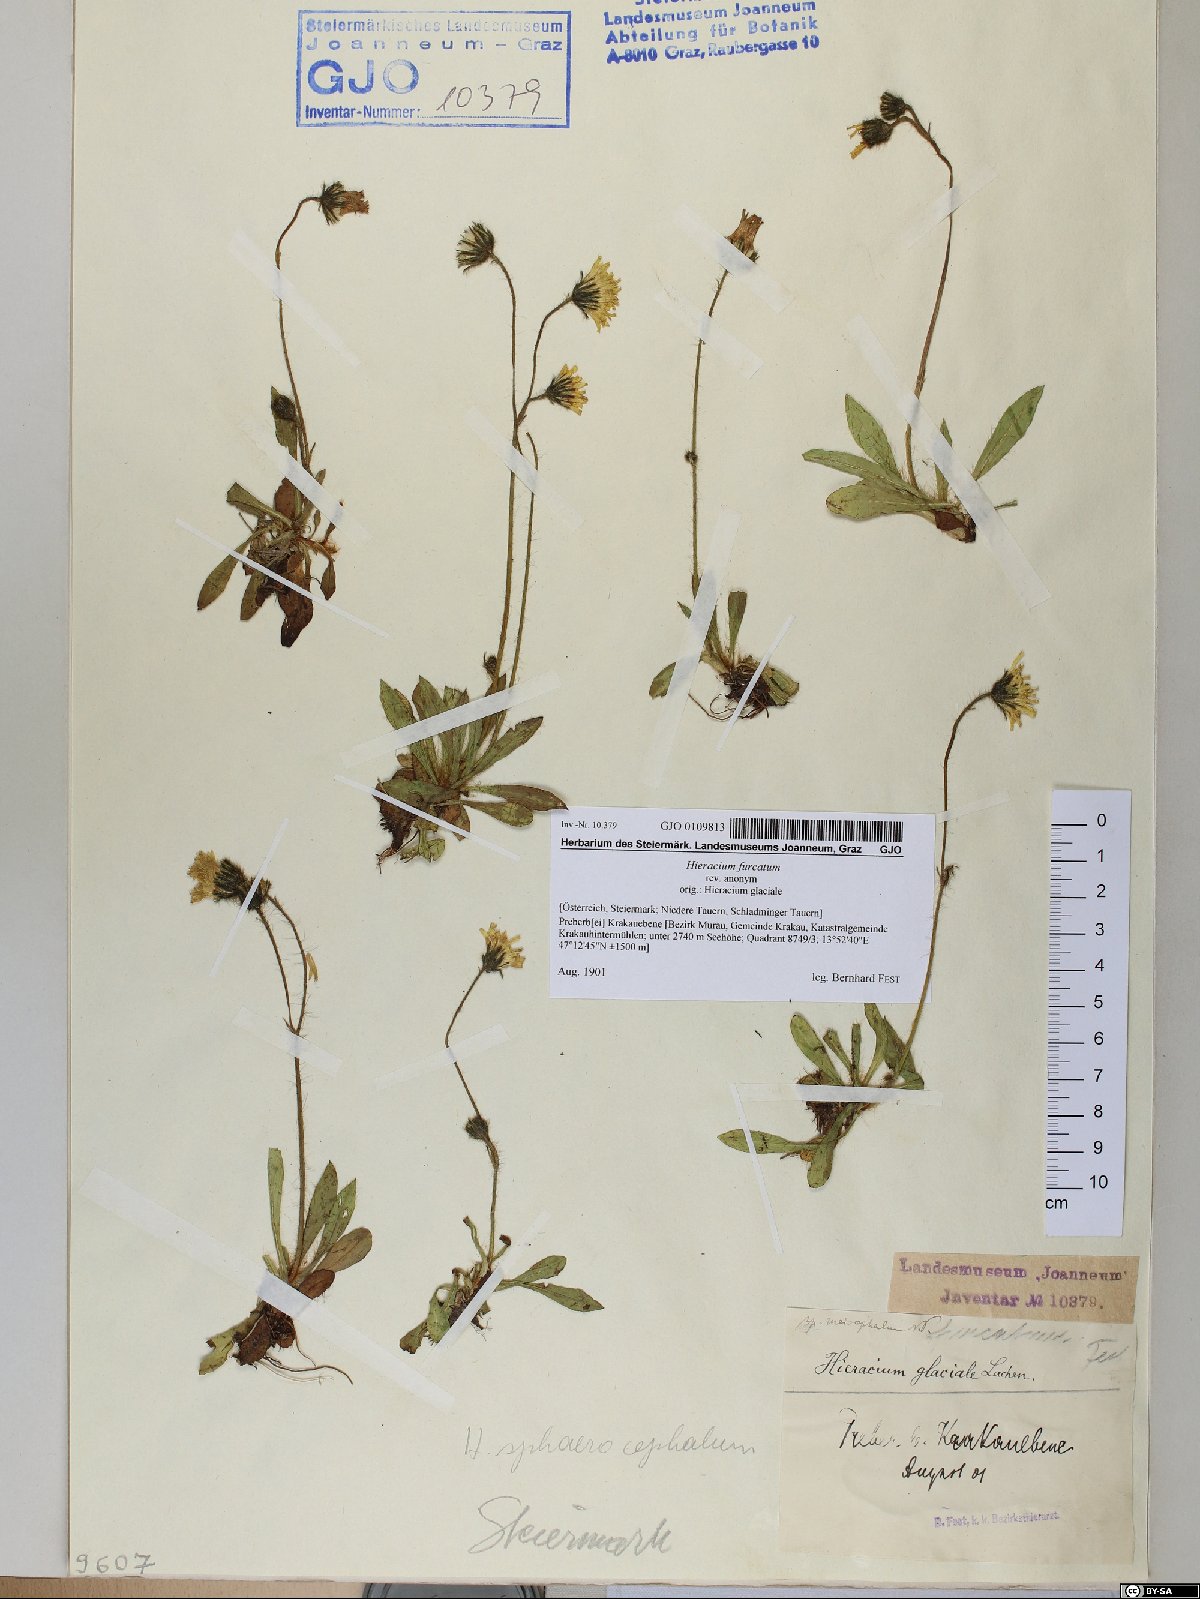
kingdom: Plantae
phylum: Tracheophyta
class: Magnoliopsida
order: Asterales
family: Asteraceae
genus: Pilosella
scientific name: Pilosella sphaerocephala
